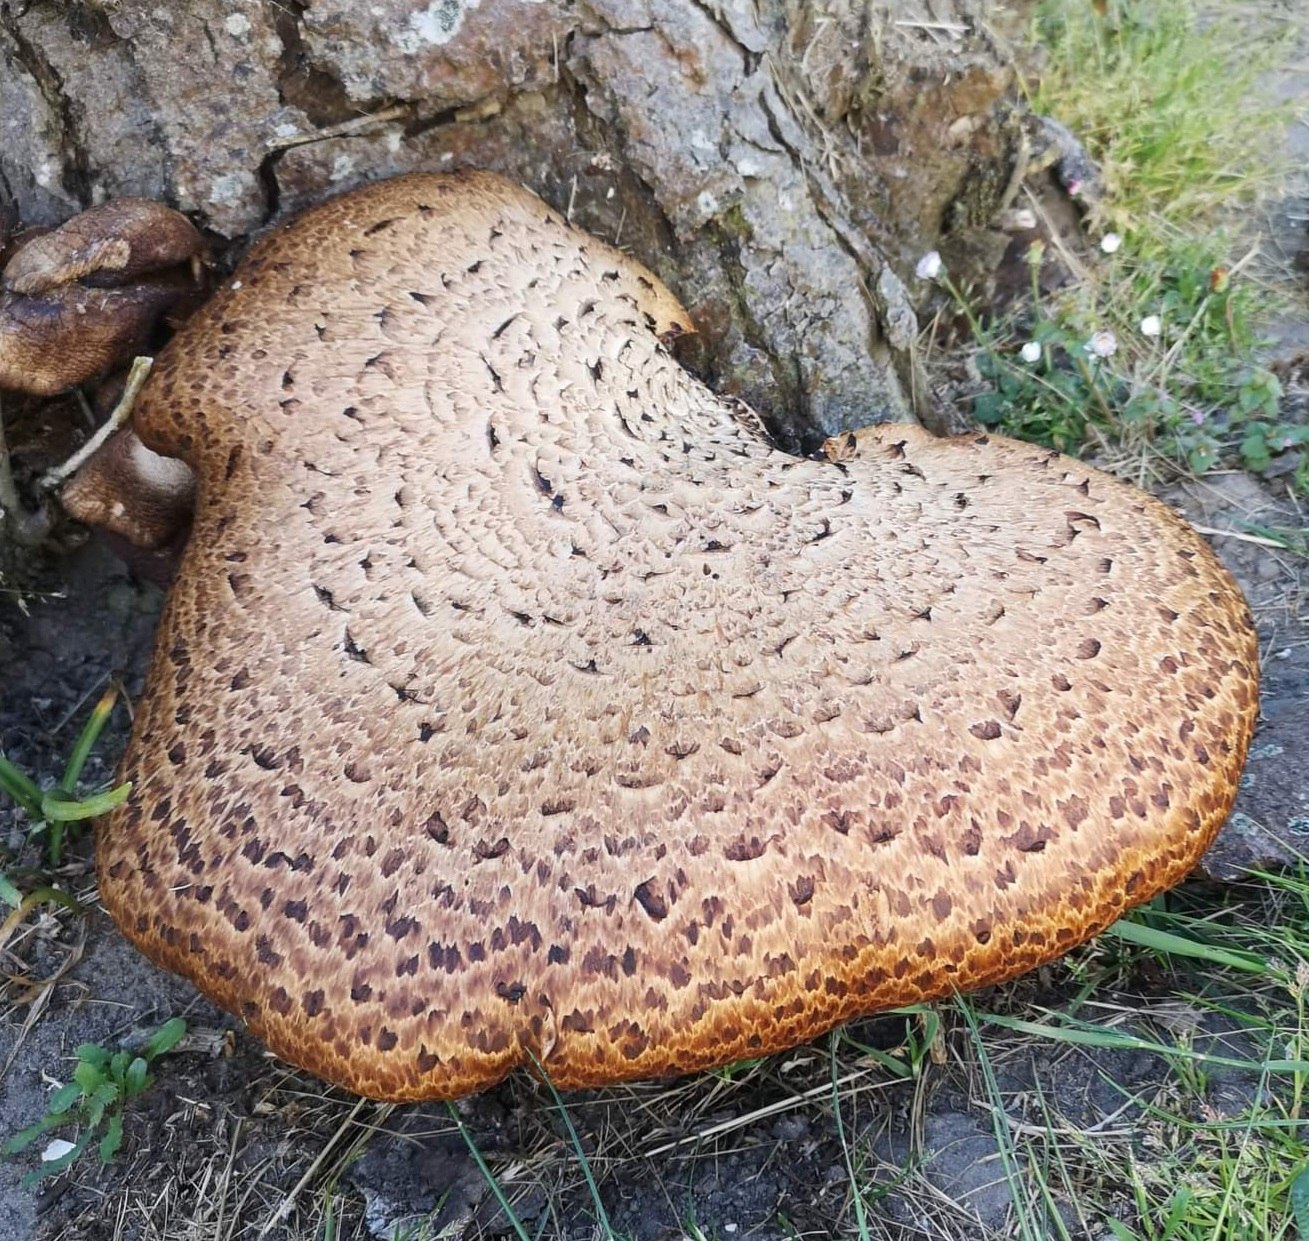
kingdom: Fungi
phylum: Basidiomycota
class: Agaricomycetes
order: Polyporales
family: Polyporaceae
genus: Cerioporus
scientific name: Cerioporus squamosus
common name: skællet stilkporesvamp
